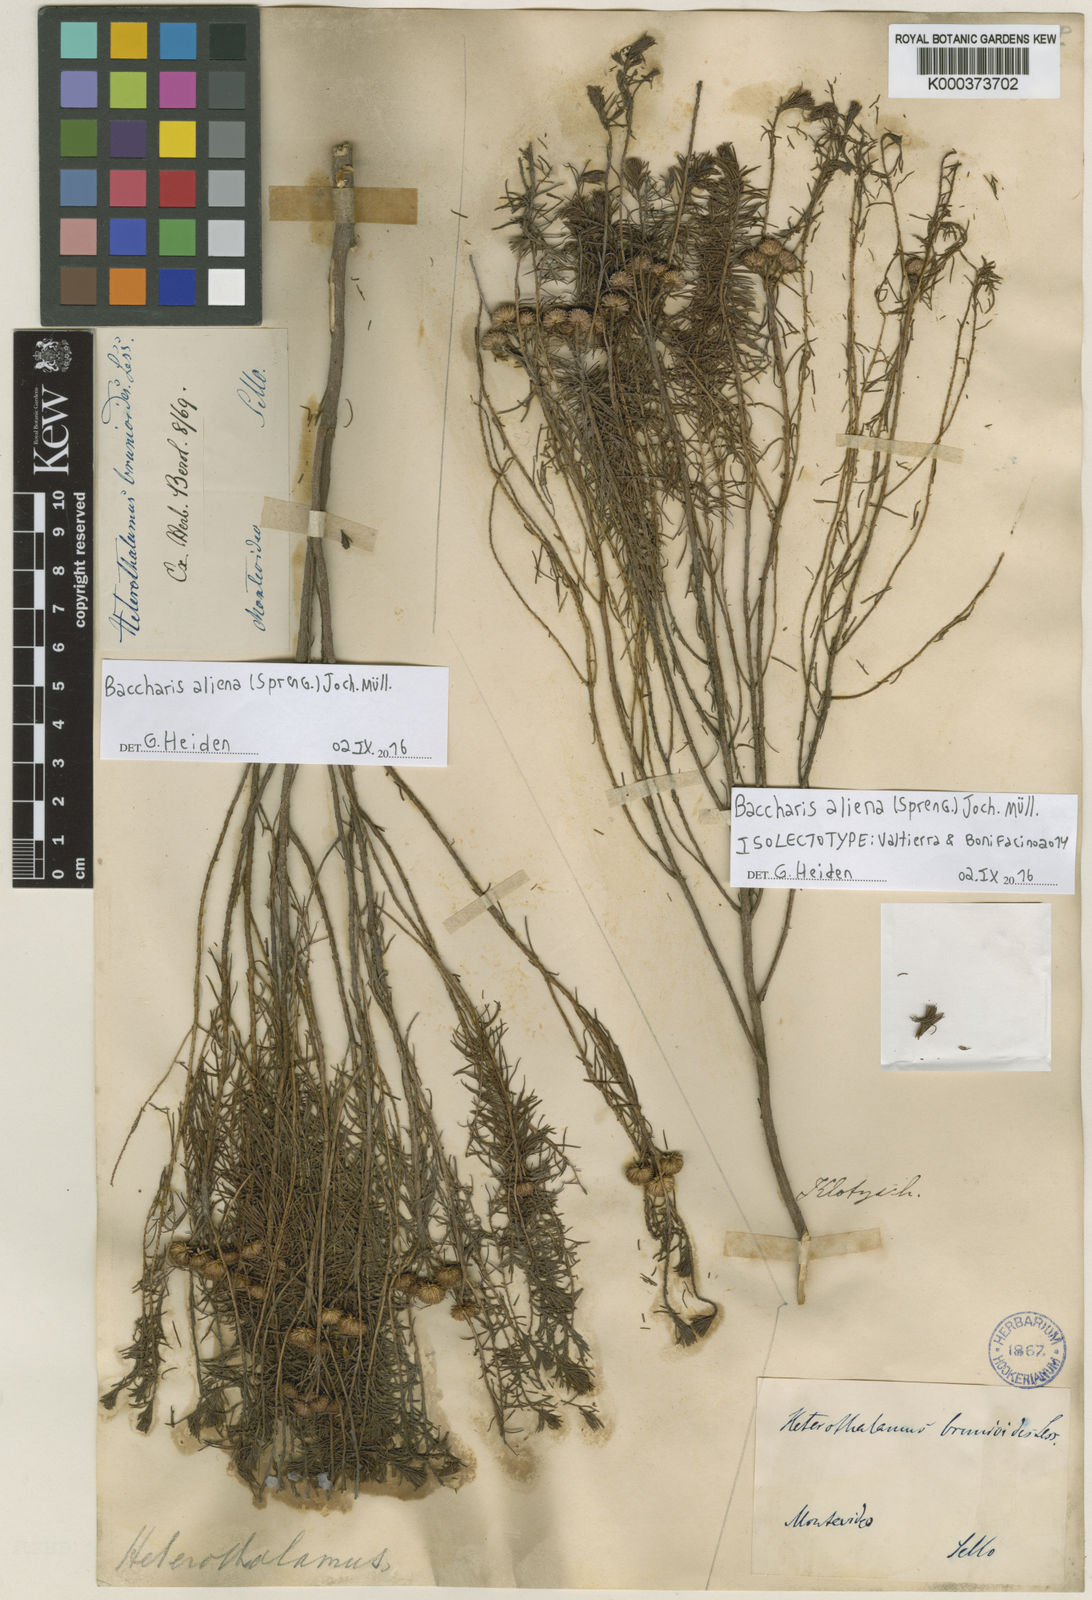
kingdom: Plantae
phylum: Tracheophyta
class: Magnoliopsida
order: Asterales
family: Asteraceae
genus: Baccharis
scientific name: Baccharis aliena
